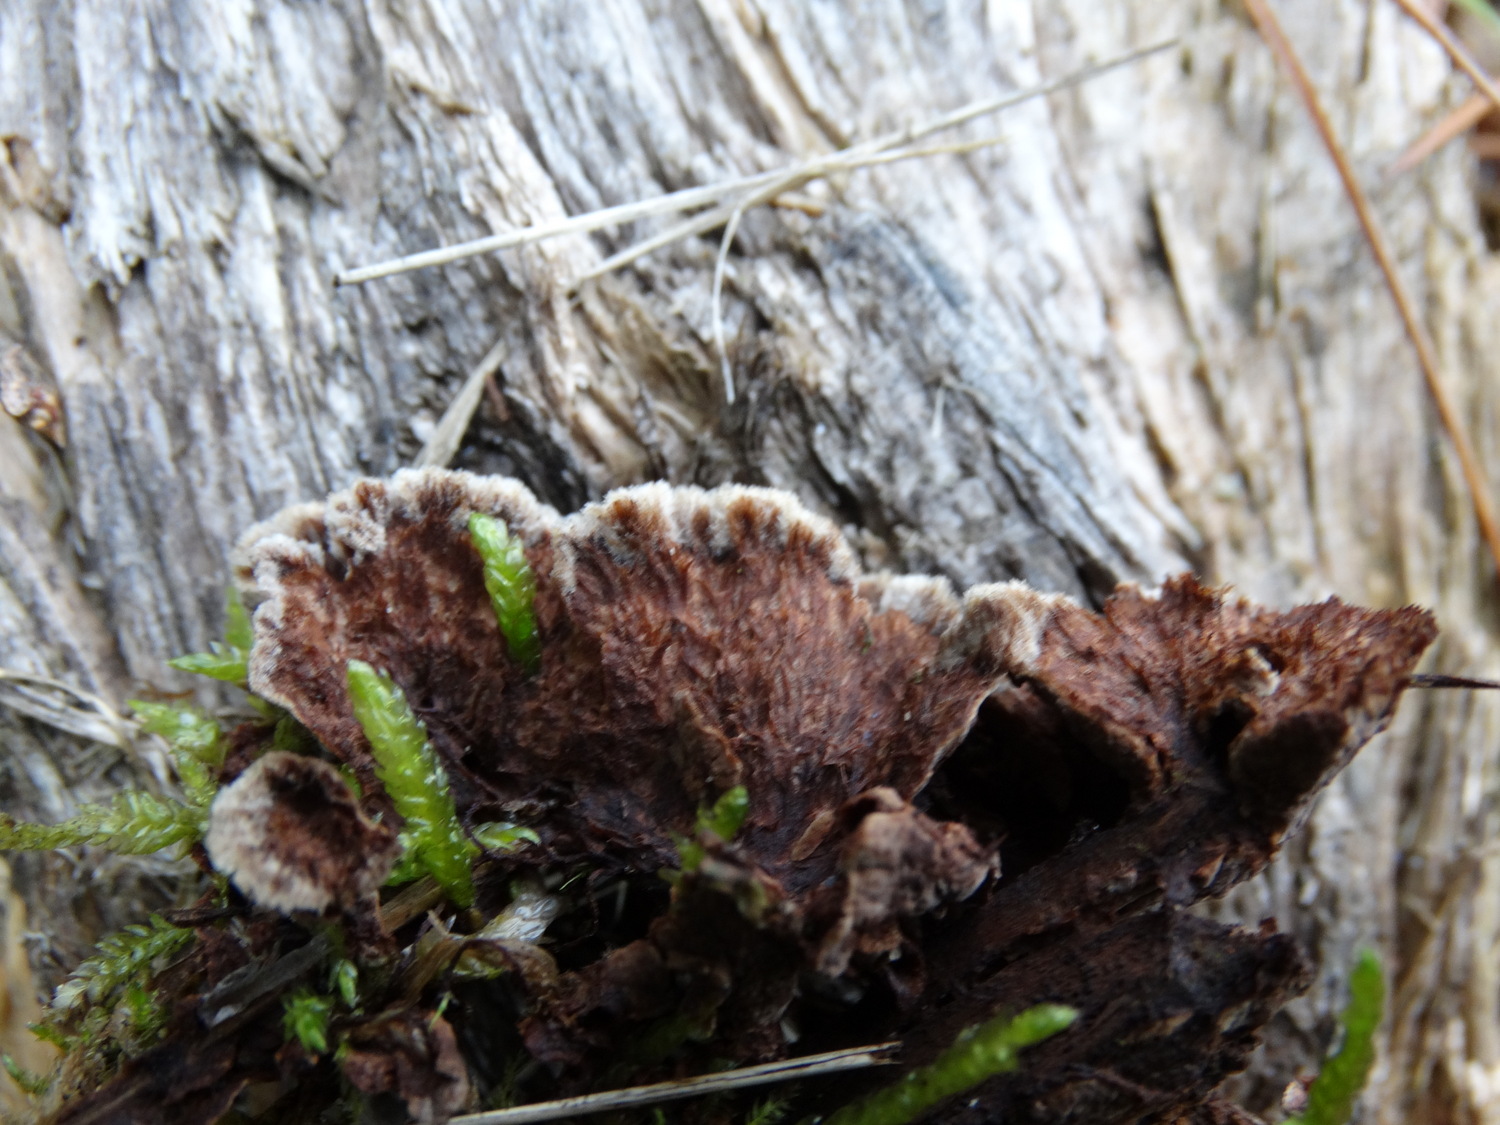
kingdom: Fungi
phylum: Basidiomycota
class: Agaricomycetes
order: Thelephorales
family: Thelephoraceae
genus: Thelephora
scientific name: Thelephora terrestris
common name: fliget frynsesvamp
